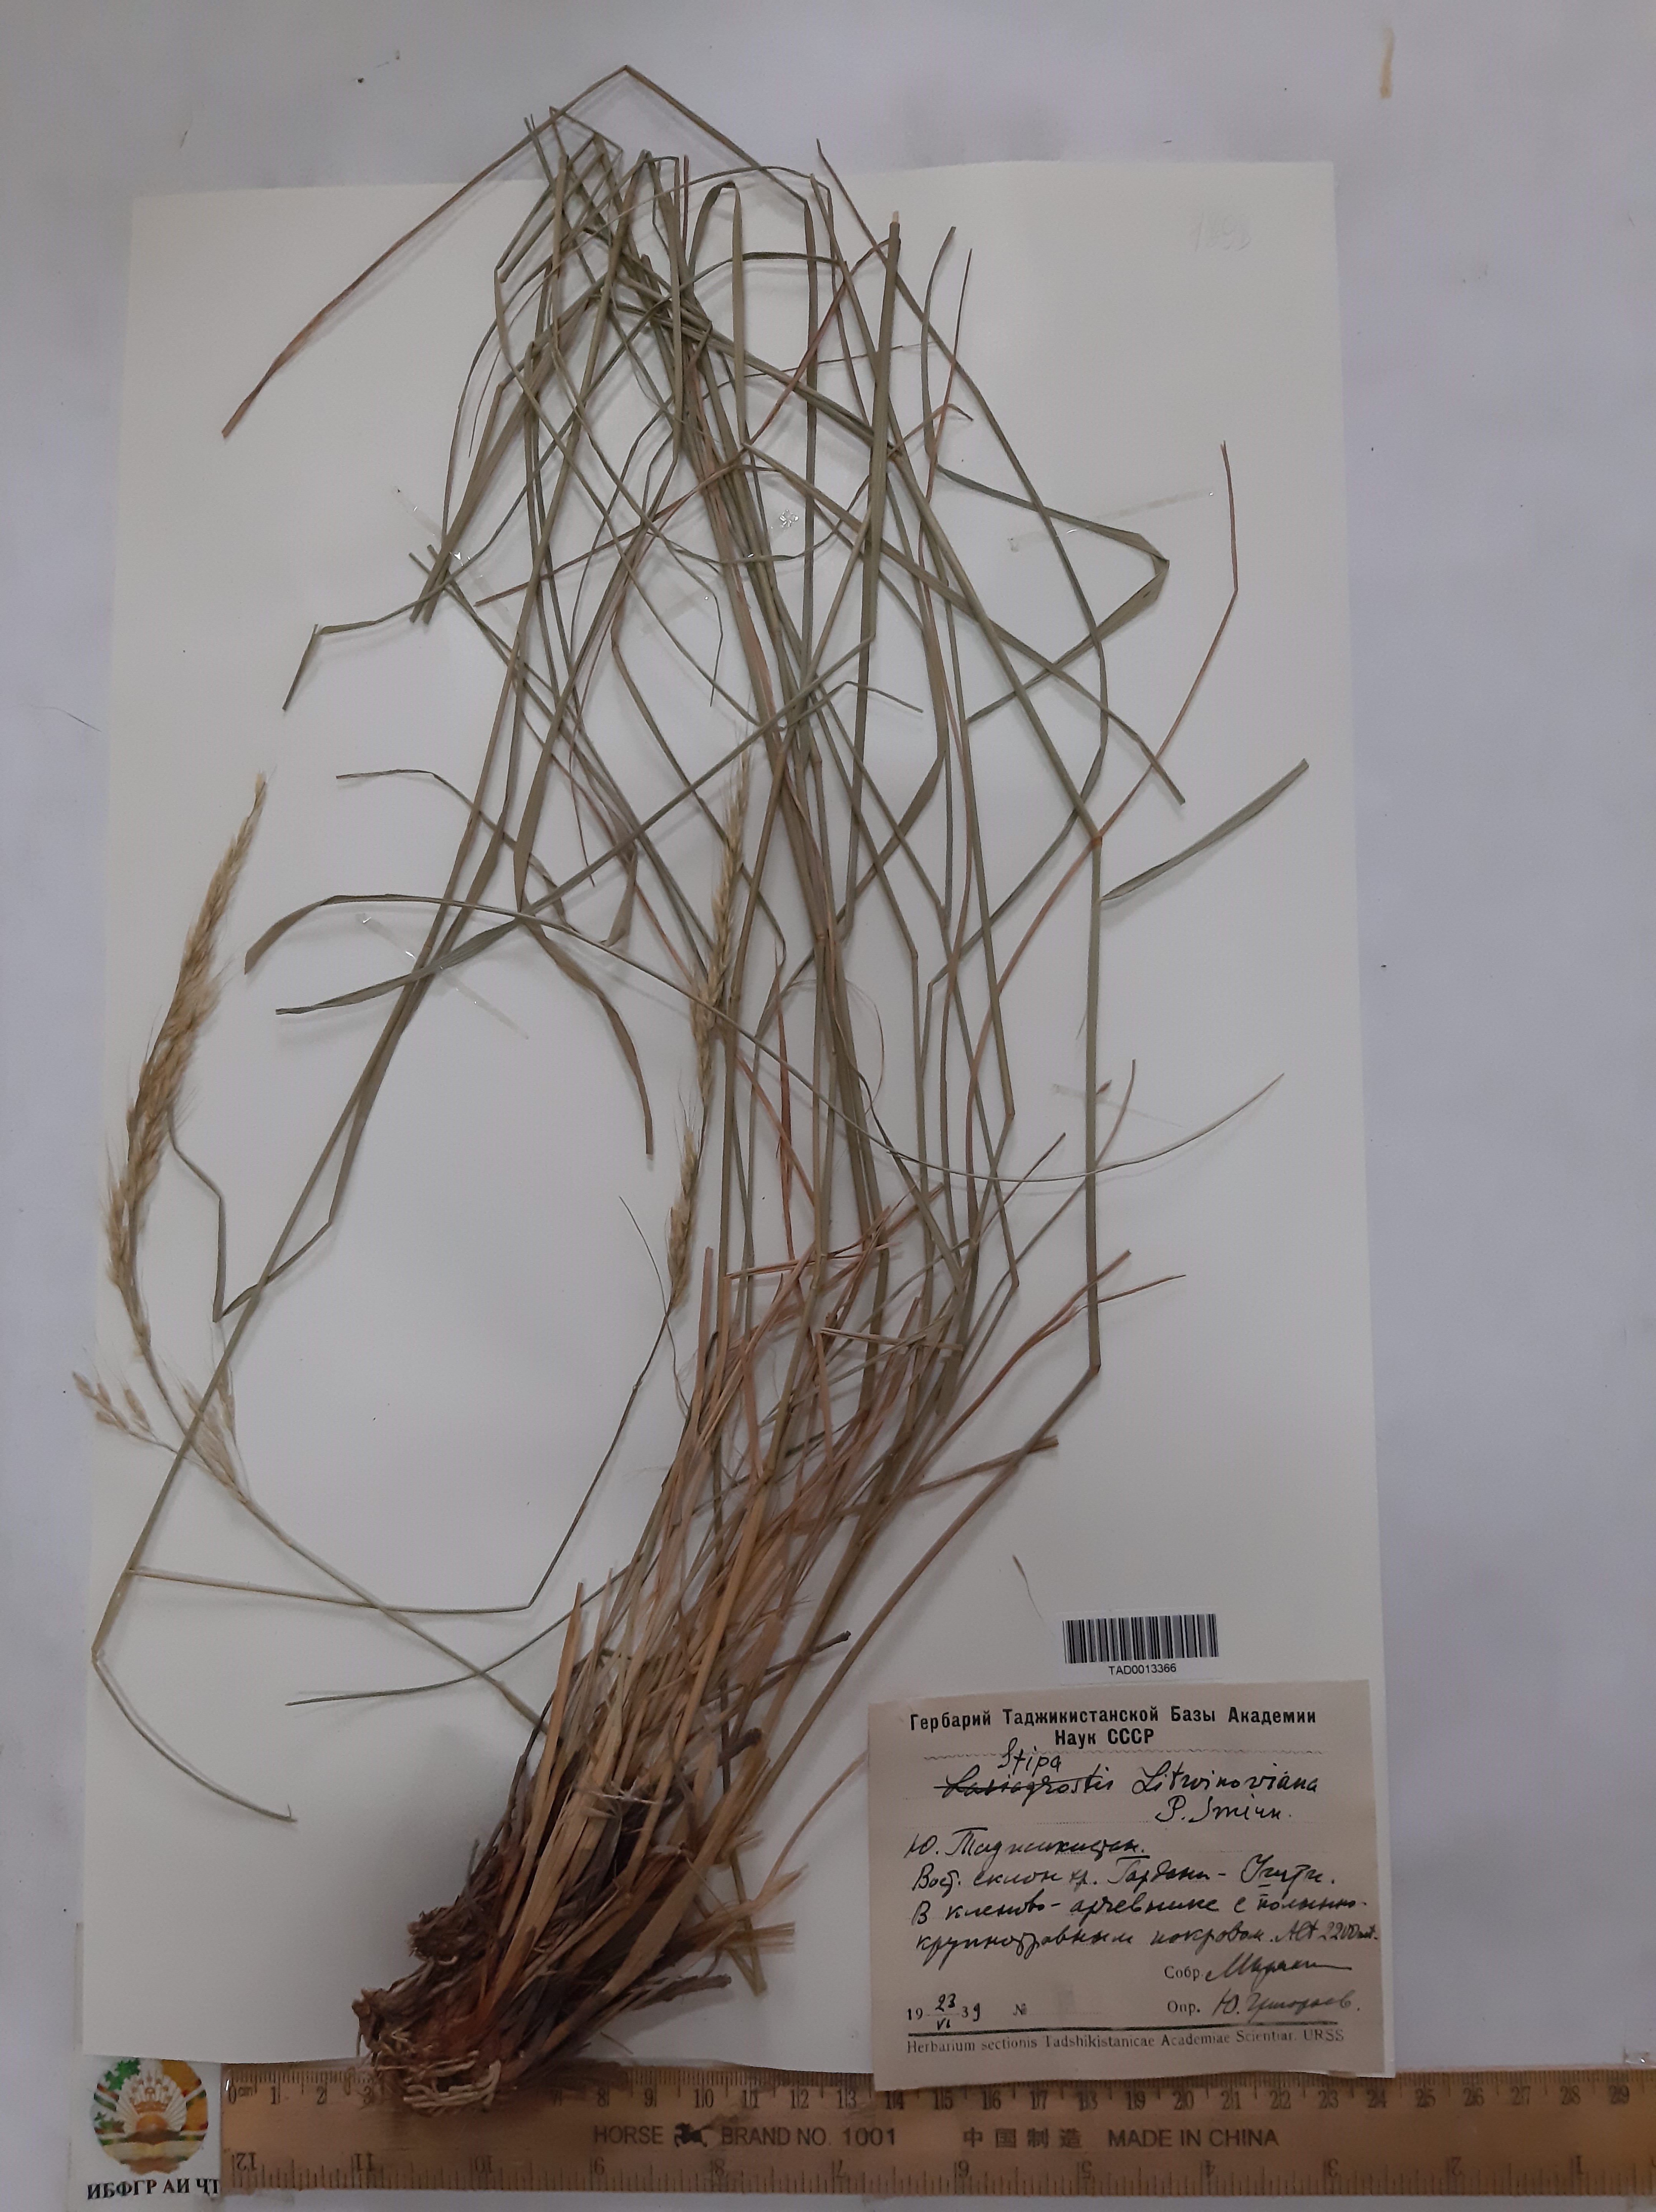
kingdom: Plantae
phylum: Tracheophyta
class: Liliopsida
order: Poales
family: Poaceae
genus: Stipa
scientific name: Stipa
